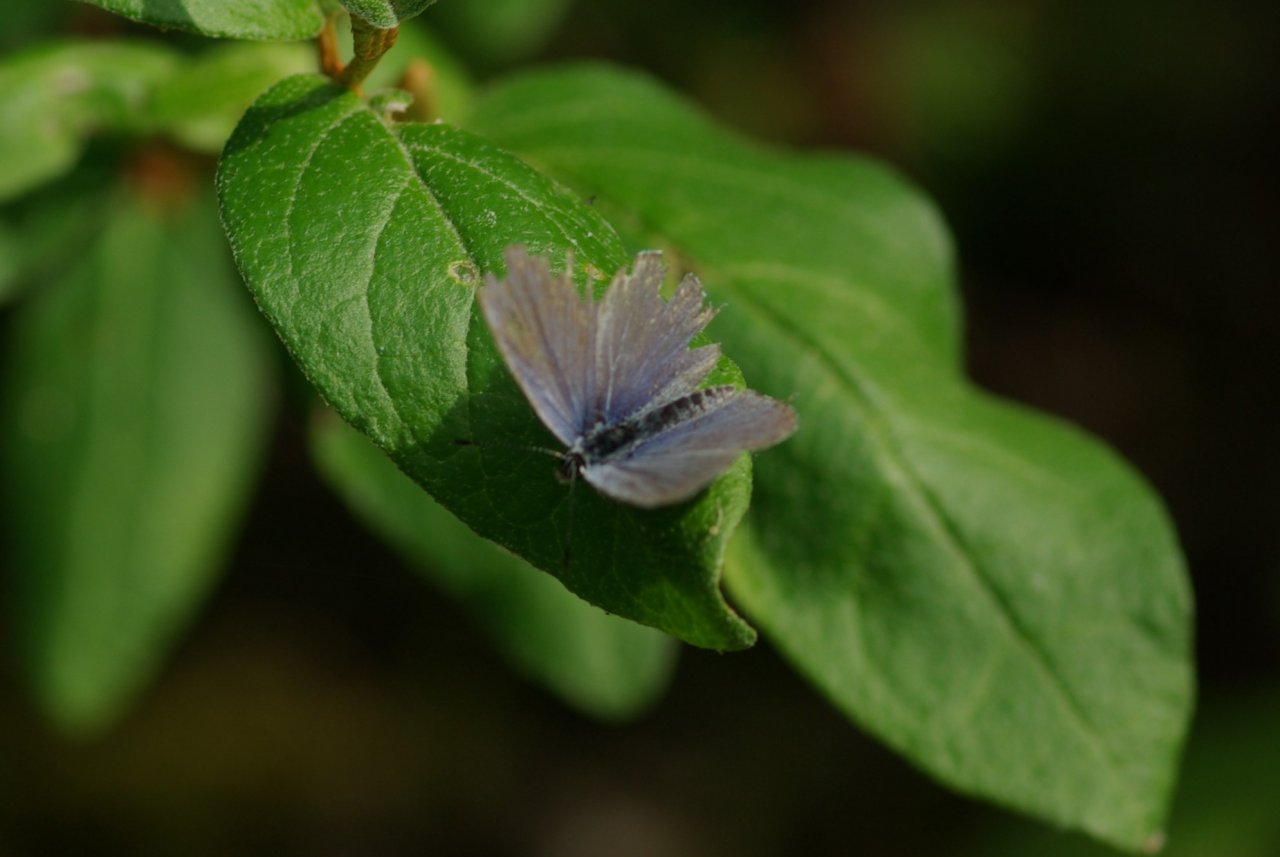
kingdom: Animalia
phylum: Arthropoda
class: Insecta
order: Lepidoptera
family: Lycaenidae
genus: Elkalyce
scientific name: Elkalyce amyntula
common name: Western Tailed-Blue
